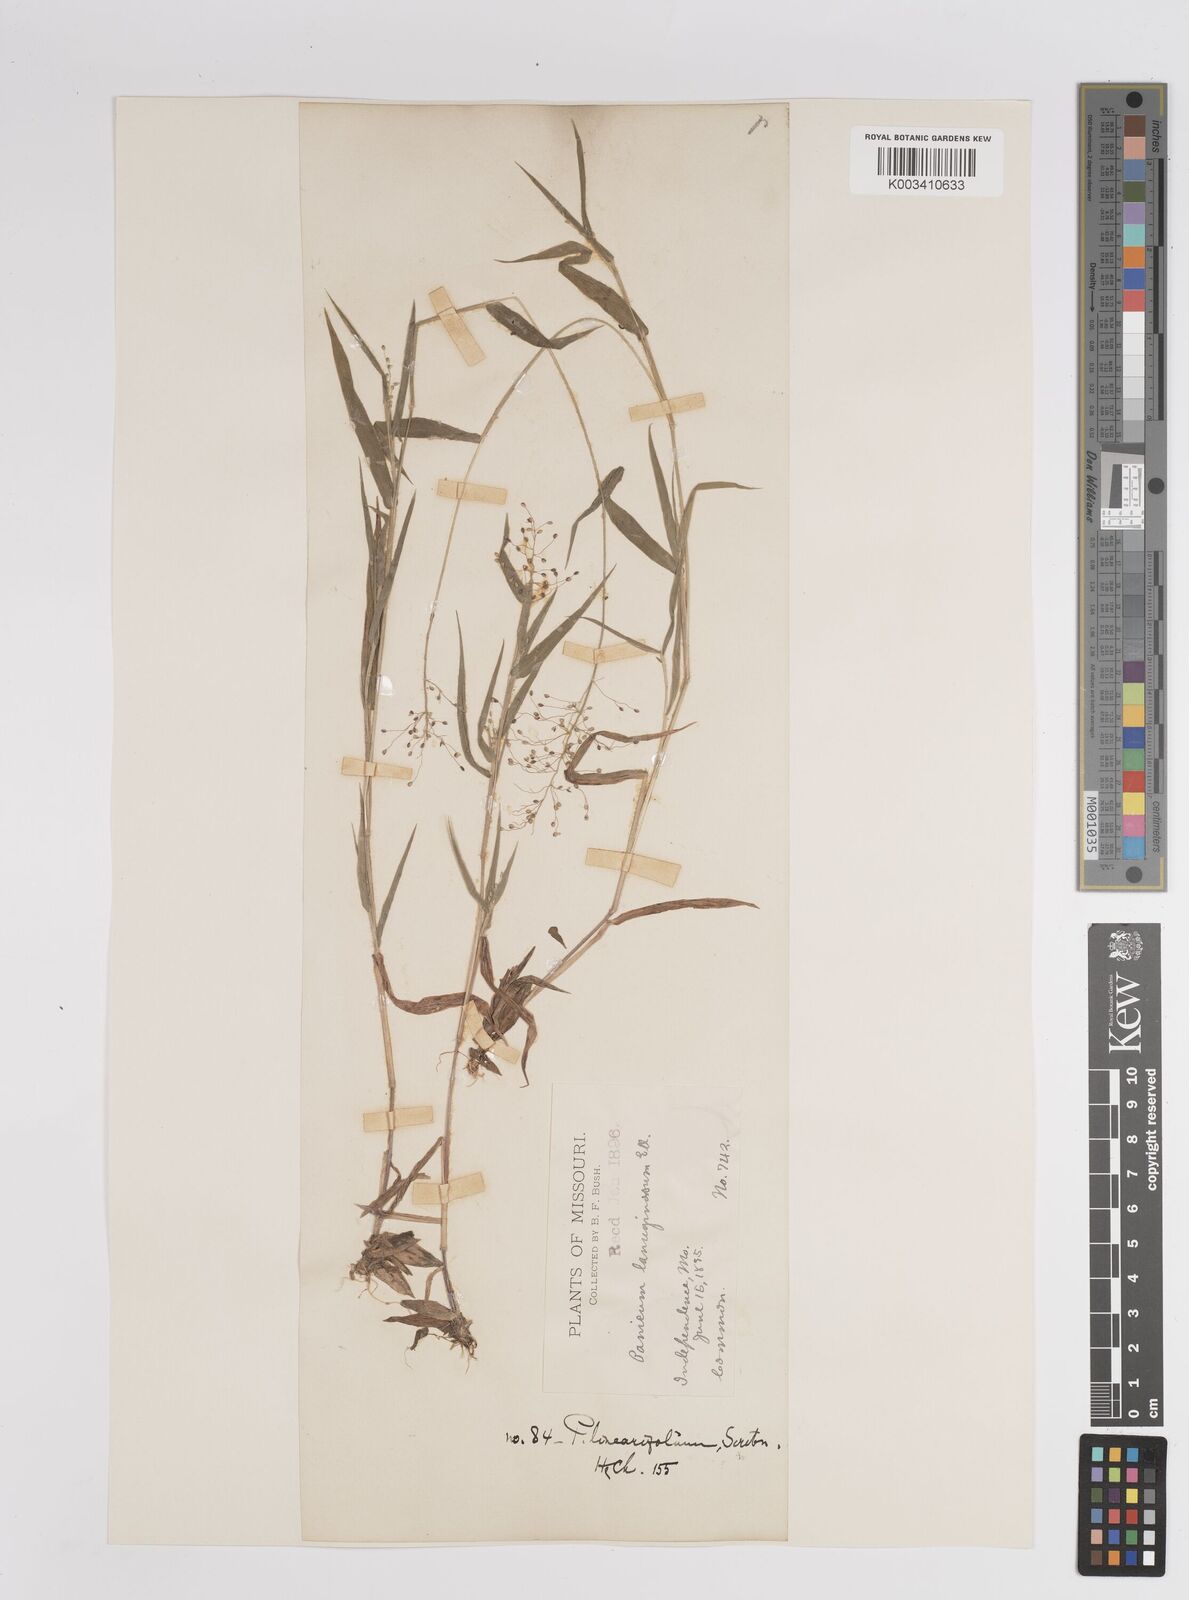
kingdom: Plantae
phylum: Tracheophyta
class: Liliopsida
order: Poales
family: Poaceae
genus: Dichanthelium
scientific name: Dichanthelium lanuginosum
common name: Woolly panicgrass
